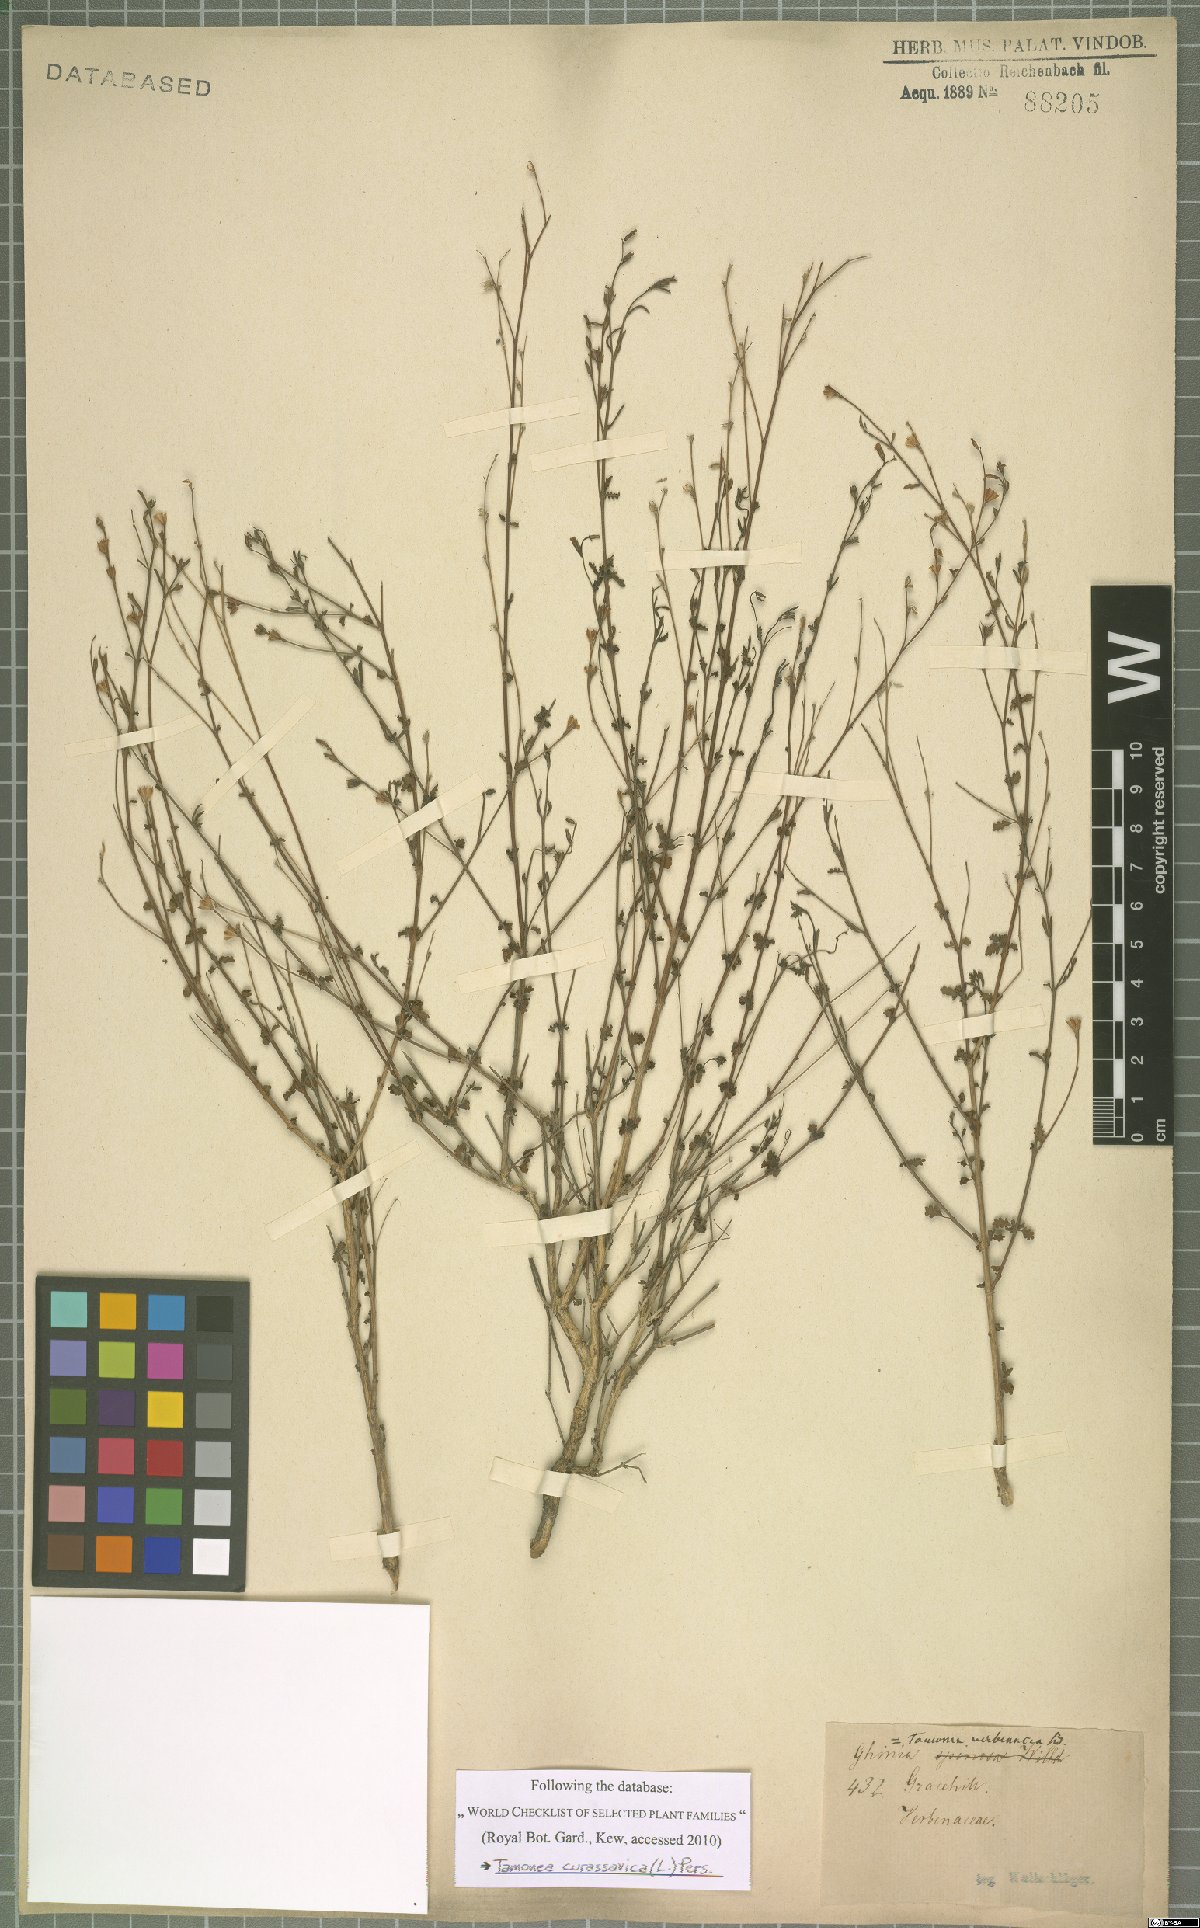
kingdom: Plantae
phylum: Tracheophyta
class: Magnoliopsida
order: Lamiales
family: Verbenaceae
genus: Tamonea
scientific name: Tamonea curassavica
